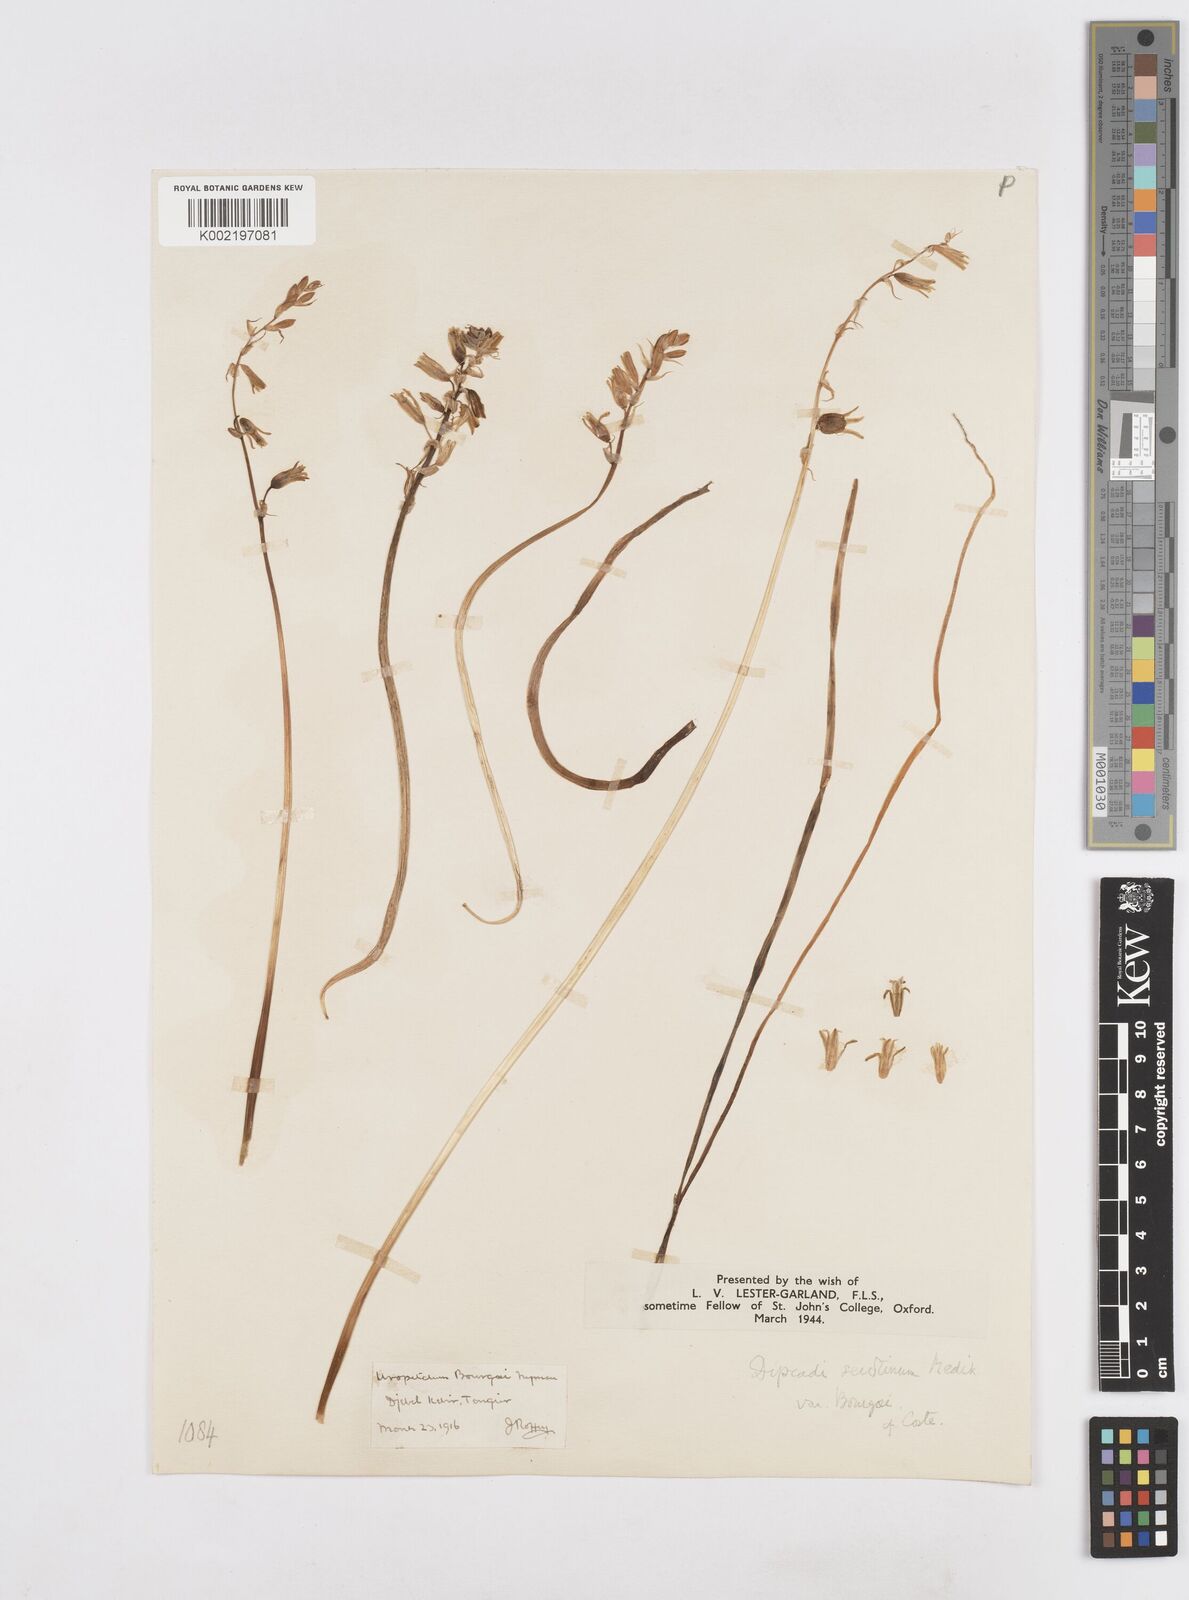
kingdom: Plantae
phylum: Tracheophyta
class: Liliopsida
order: Asparagales
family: Asparagaceae
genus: Dipcadi
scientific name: Dipcadi serotinum
